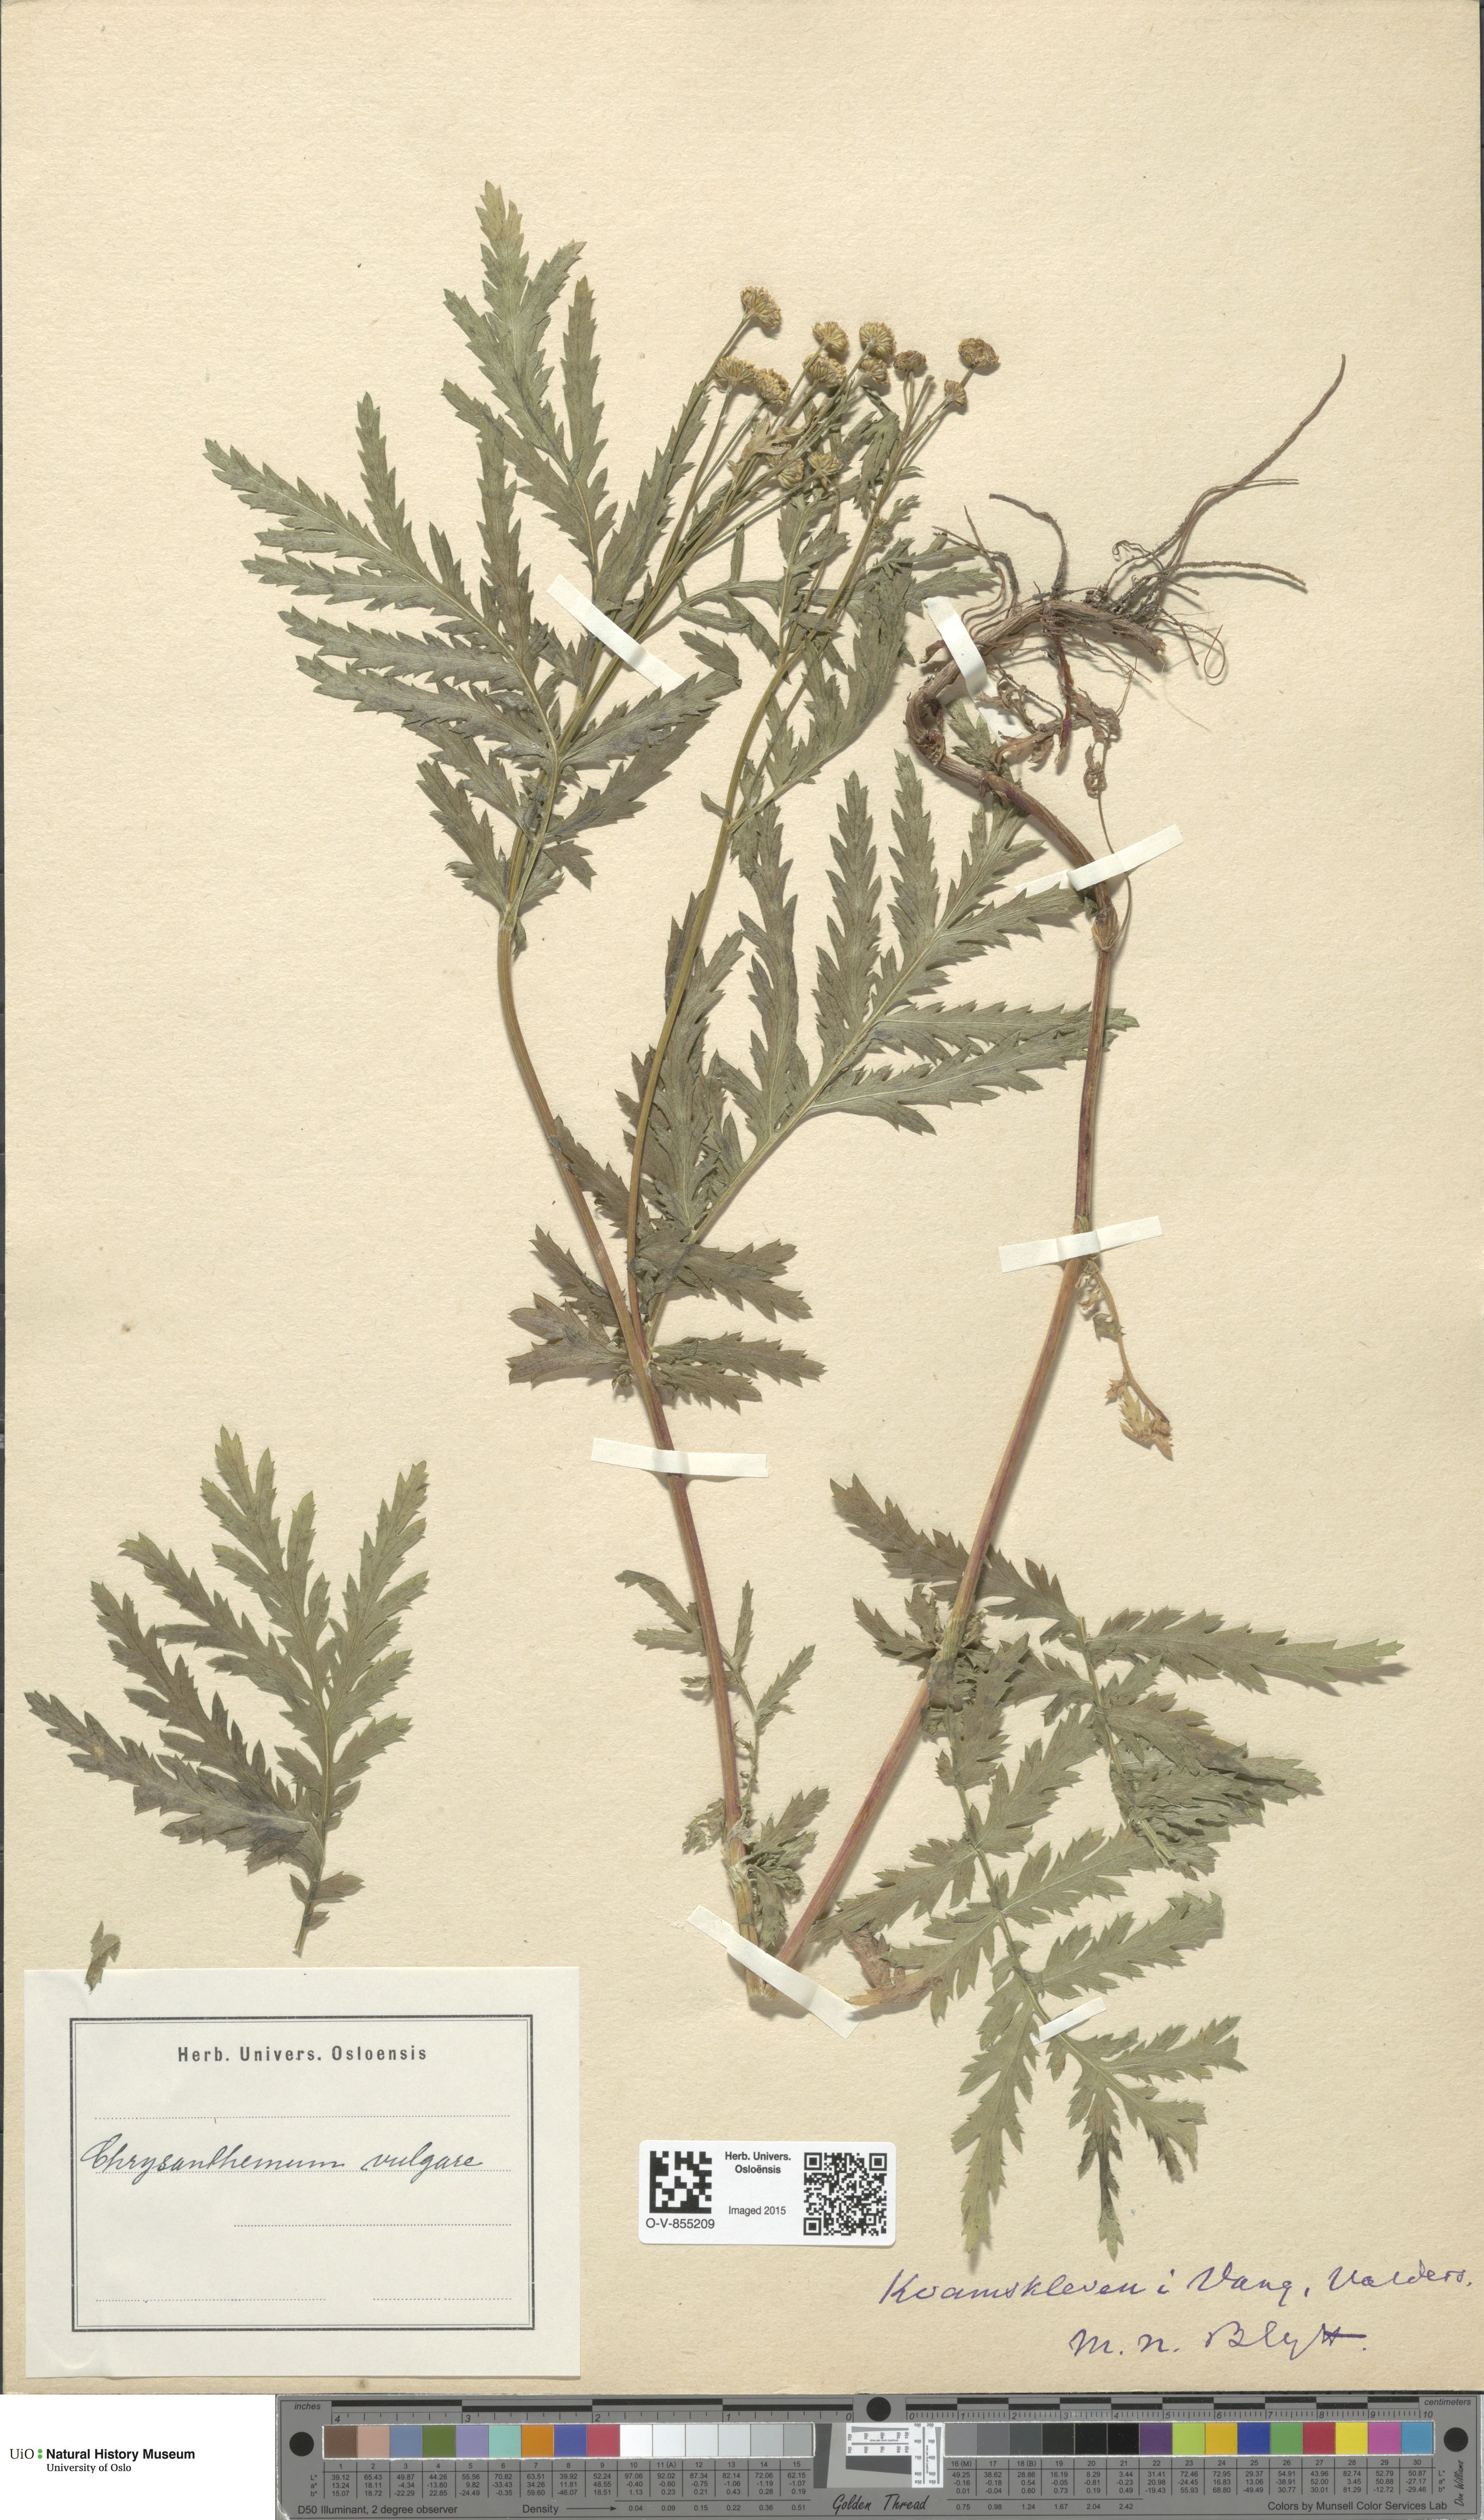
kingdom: Plantae
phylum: Tracheophyta
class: Magnoliopsida
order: Asterales
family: Asteraceae
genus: Tanacetum
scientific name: Tanacetum vulgare
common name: Common tansy
